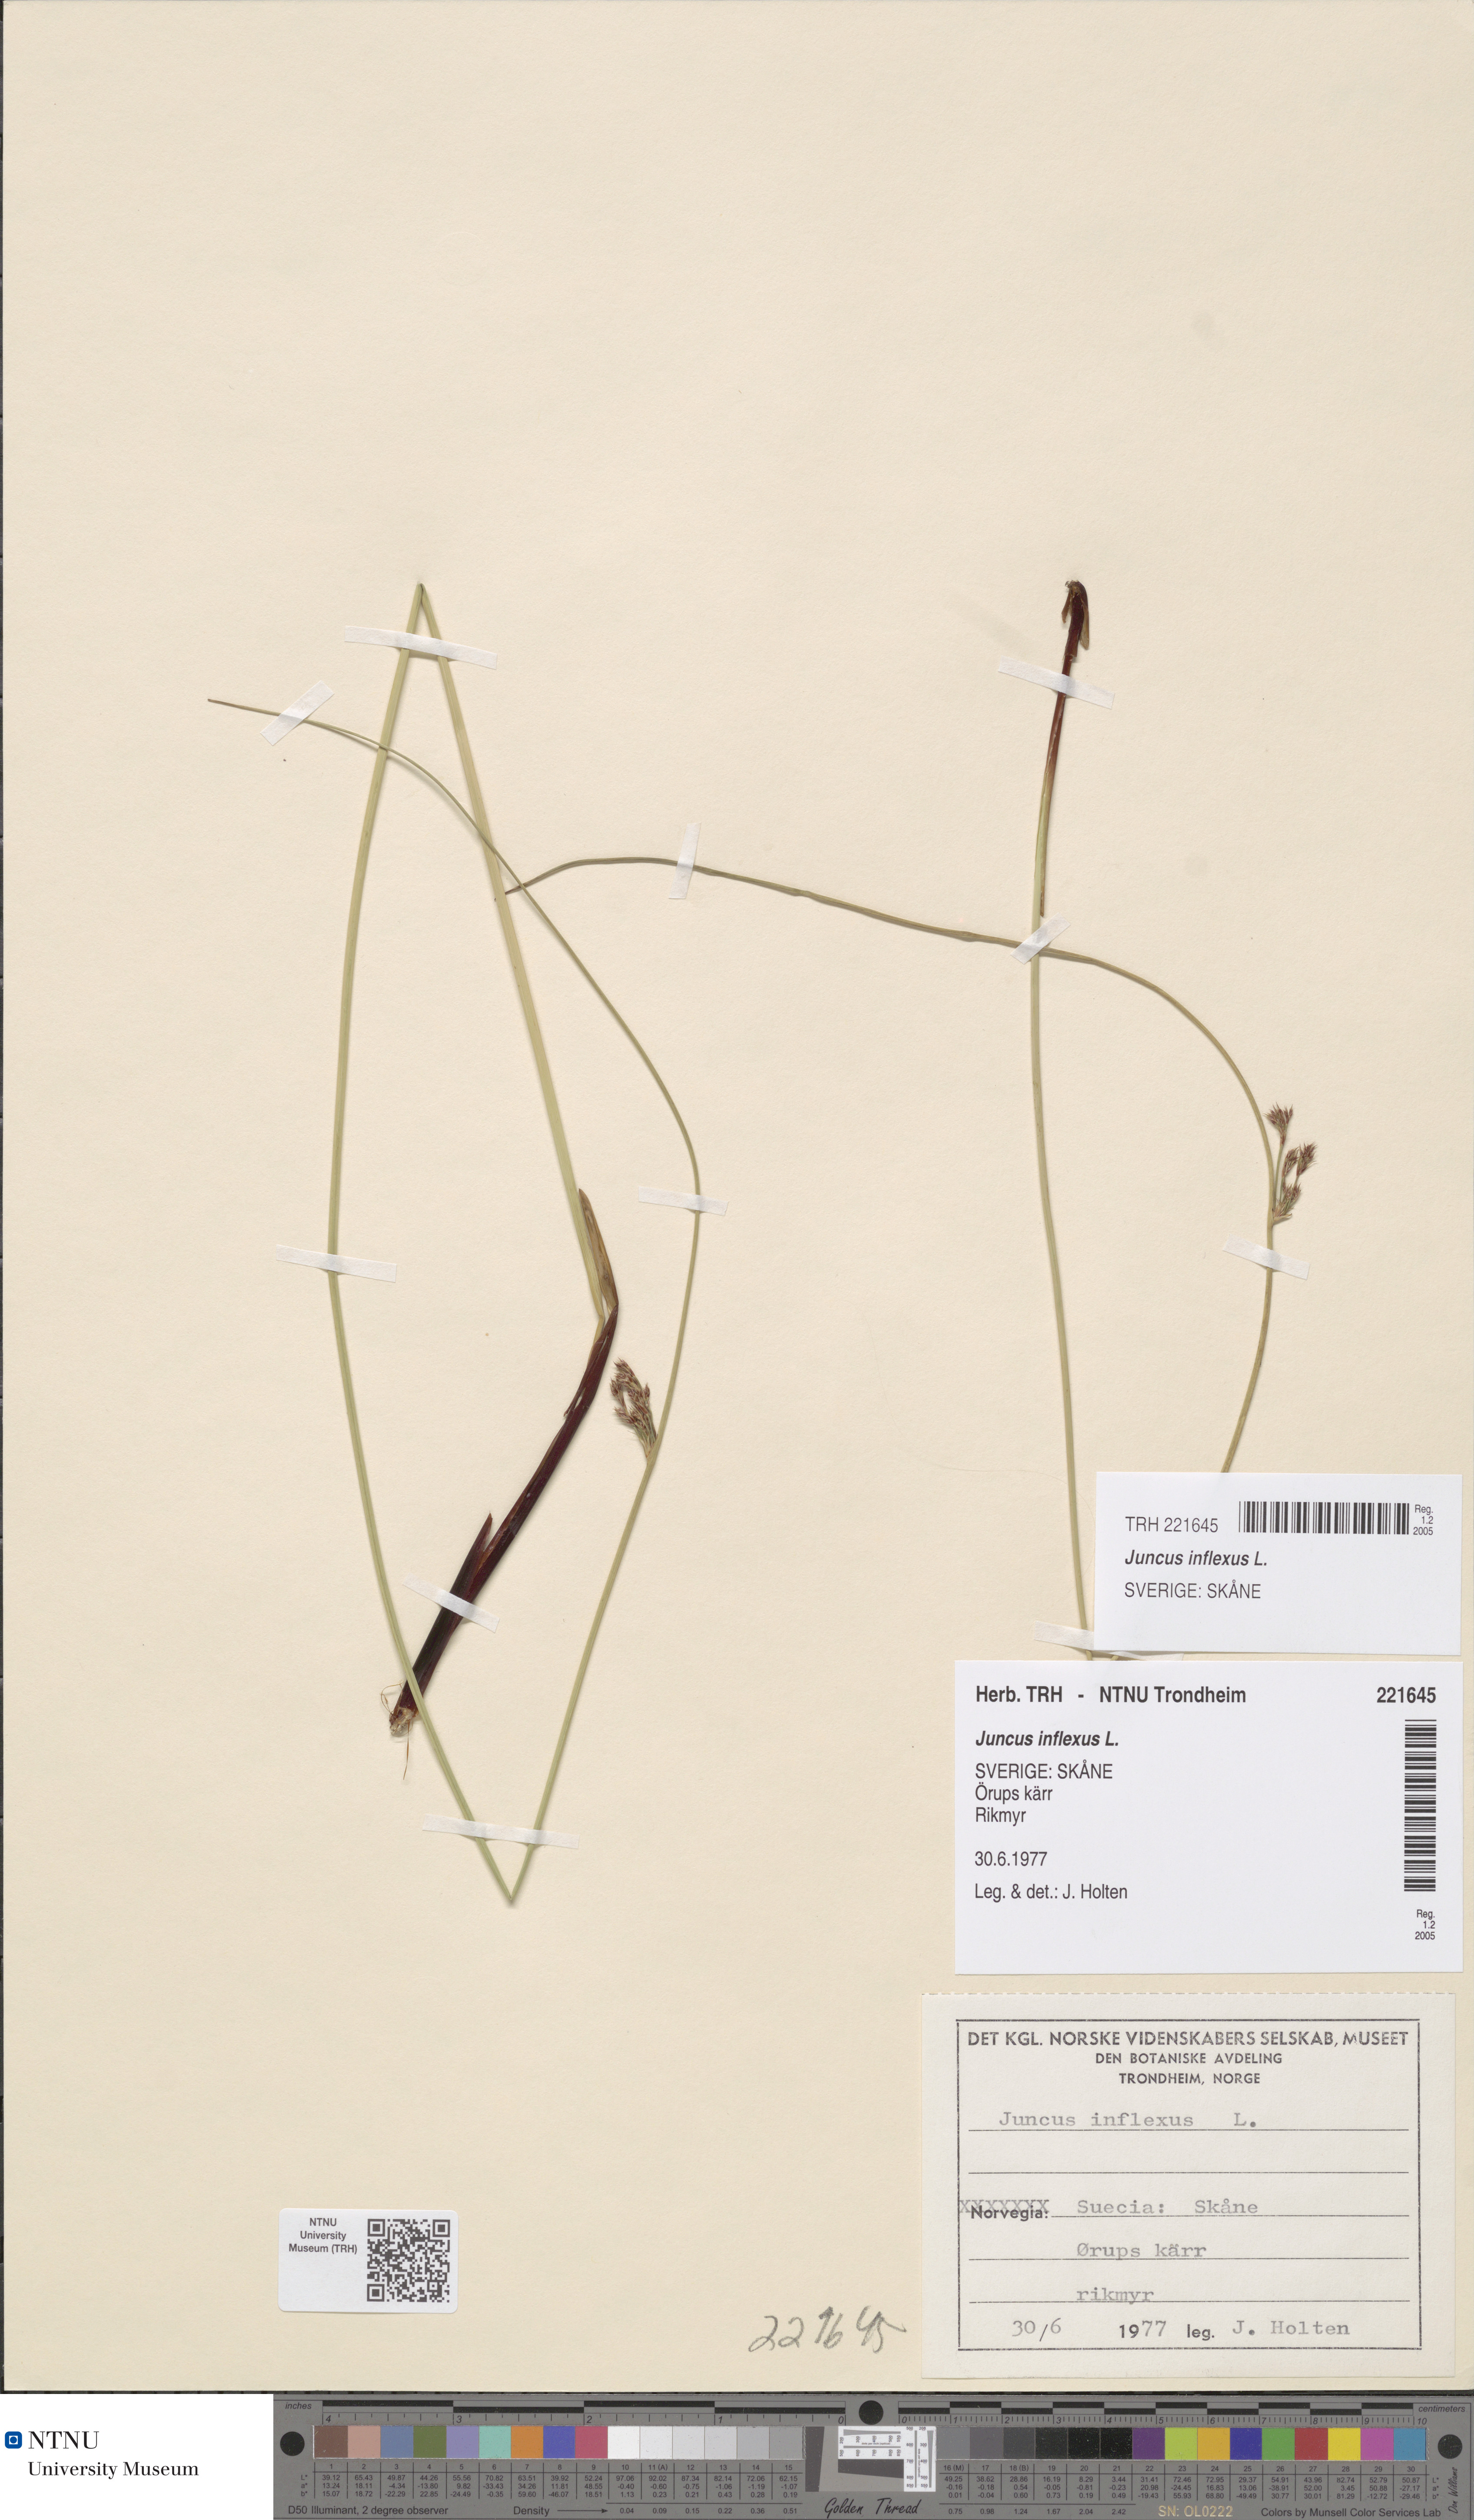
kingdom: Plantae
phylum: Tracheophyta
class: Liliopsida
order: Poales
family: Juncaceae
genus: Juncus
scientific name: Juncus inflexus
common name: Hard rush
